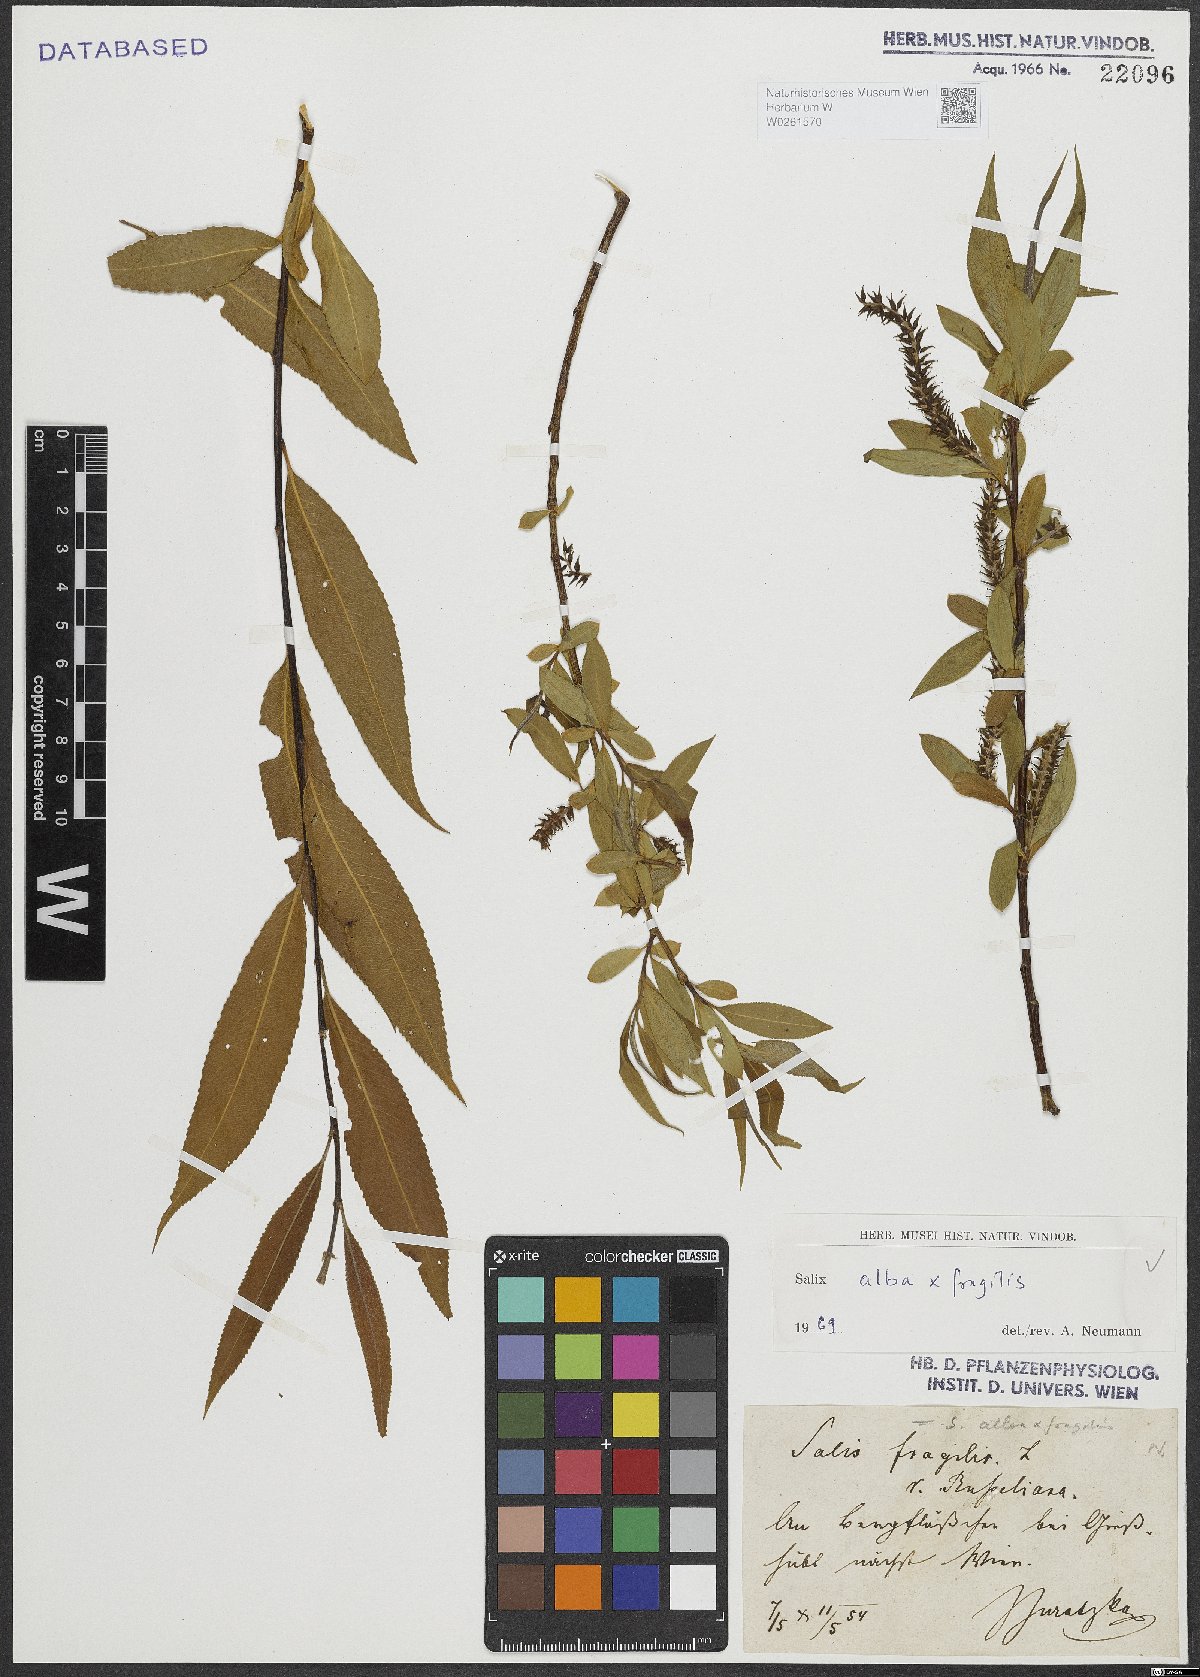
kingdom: Plantae
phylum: Tracheophyta
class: Magnoliopsida
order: Malpighiales
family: Salicaceae
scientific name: Salicaceae
